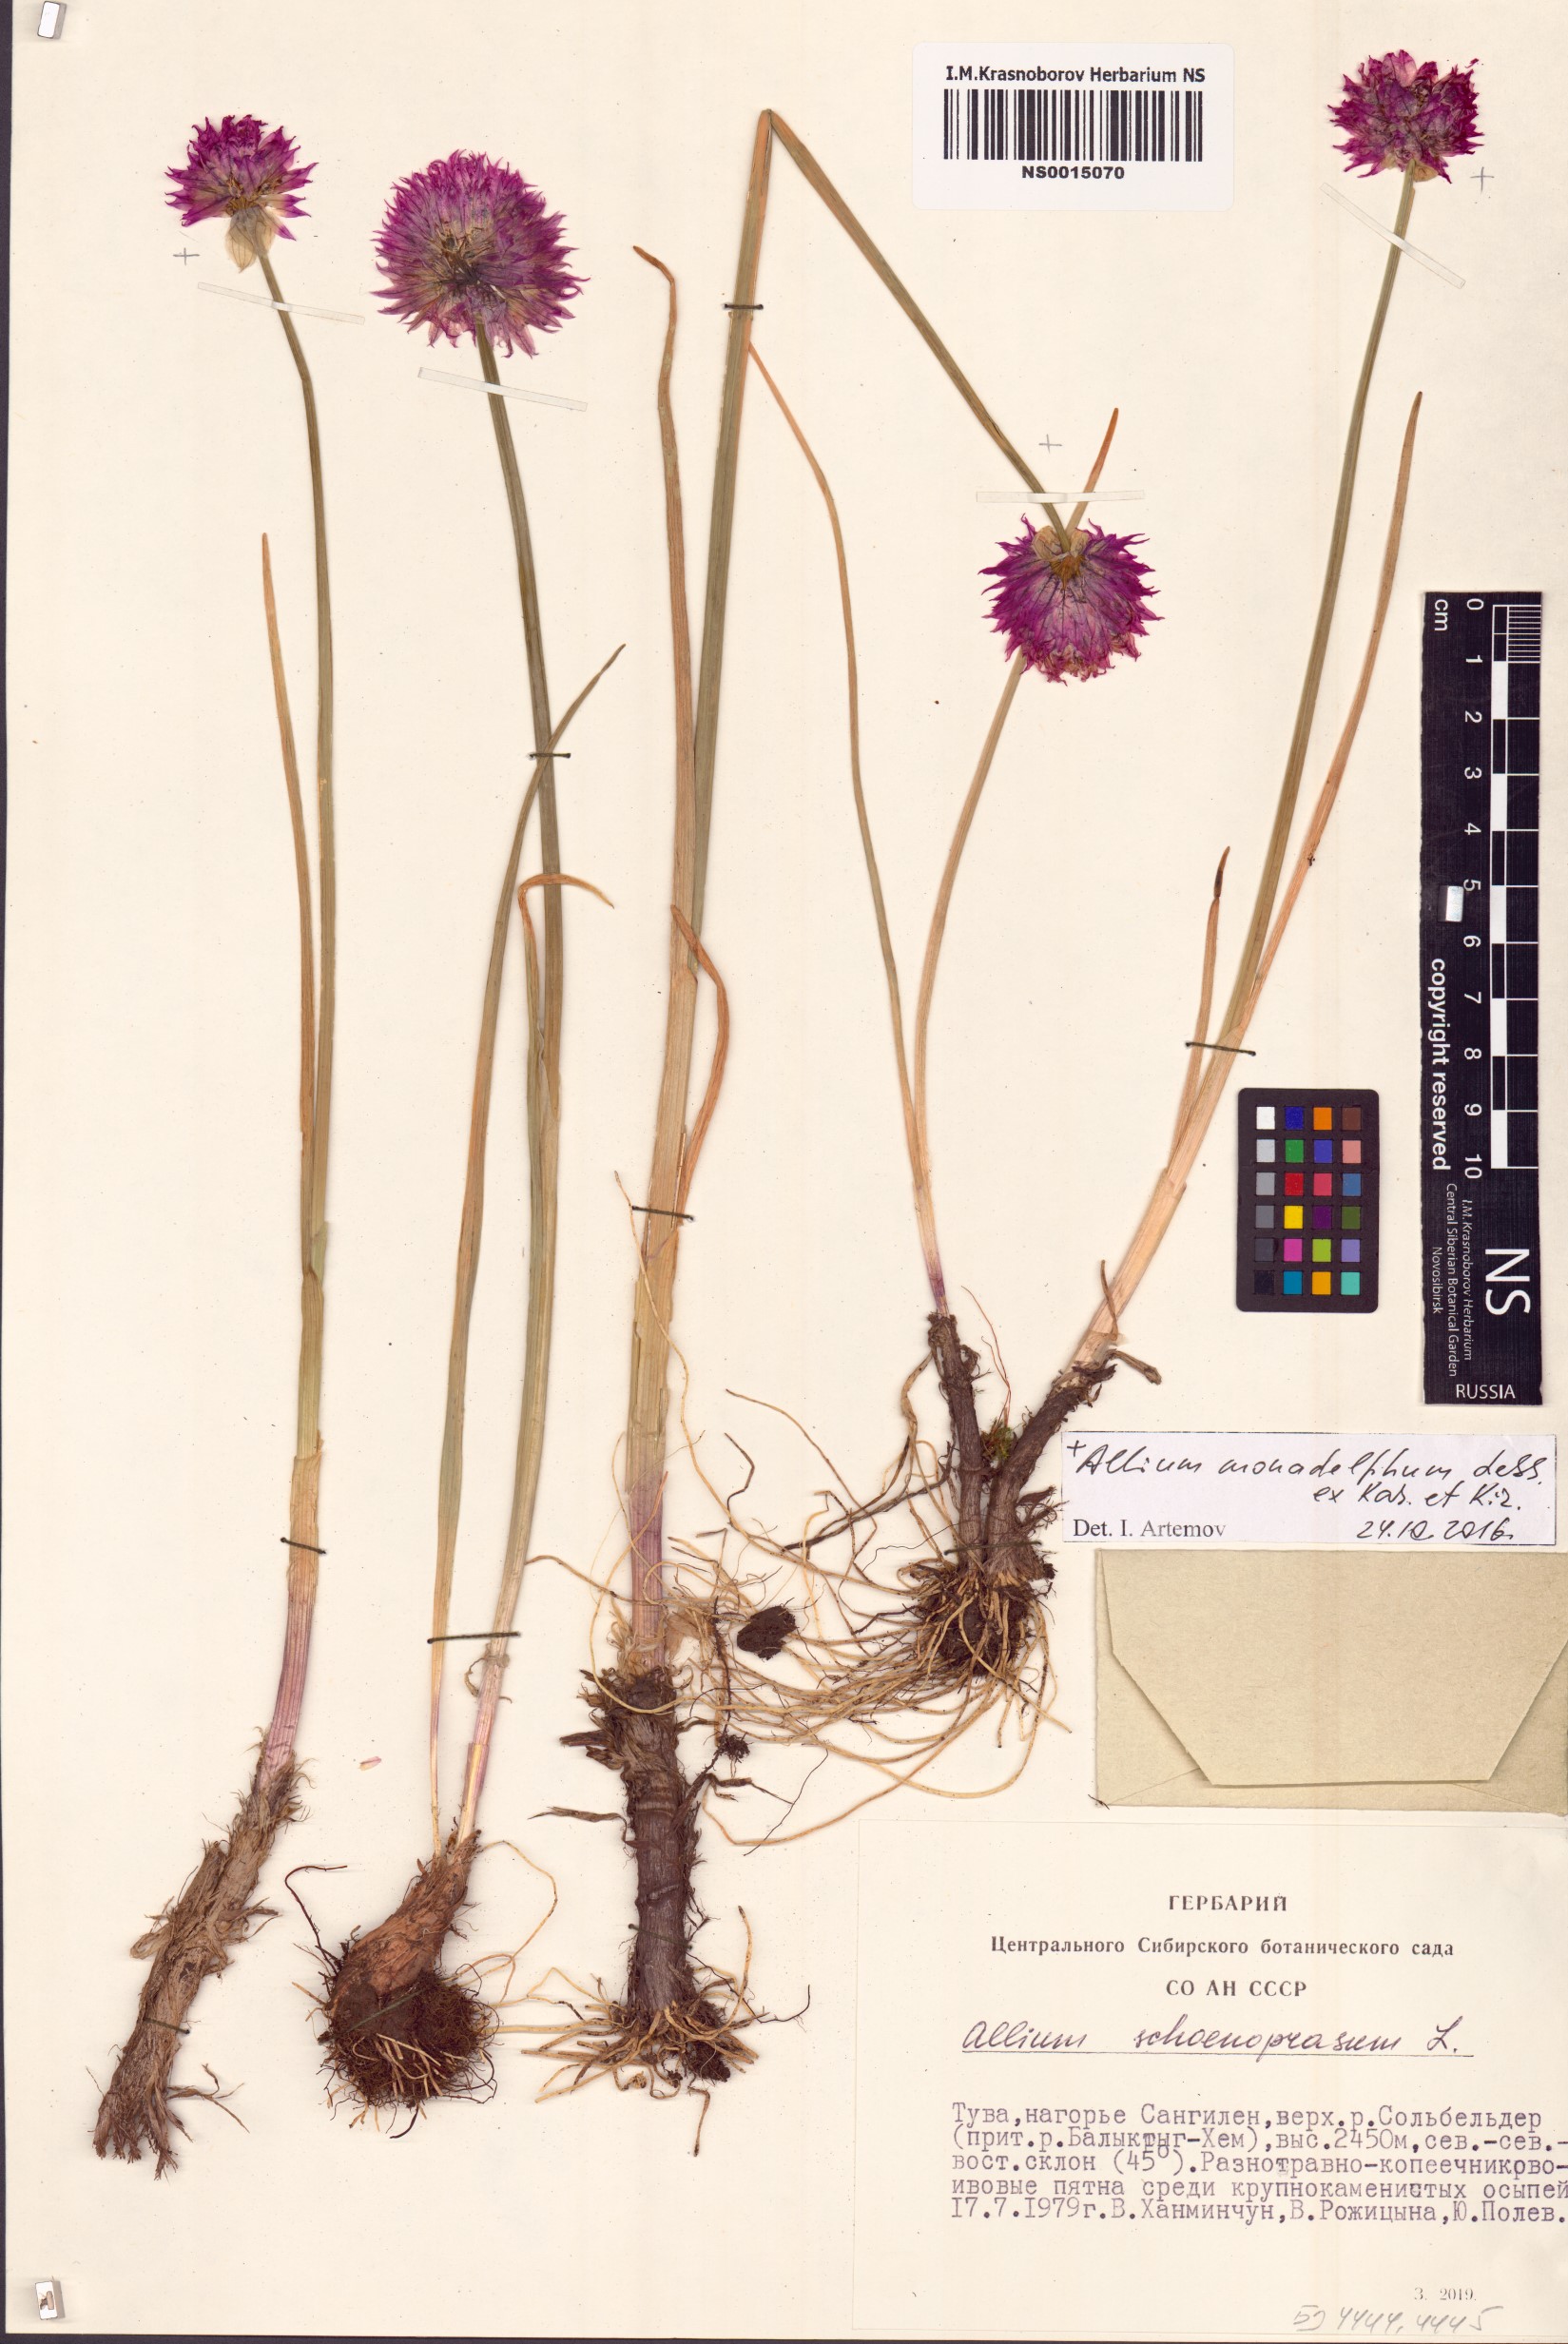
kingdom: Plantae
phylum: Tracheophyta
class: Liliopsida
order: Asparagales
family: Amaryllidaceae
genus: Allium
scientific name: Allium schoenoprasum
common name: Chives
